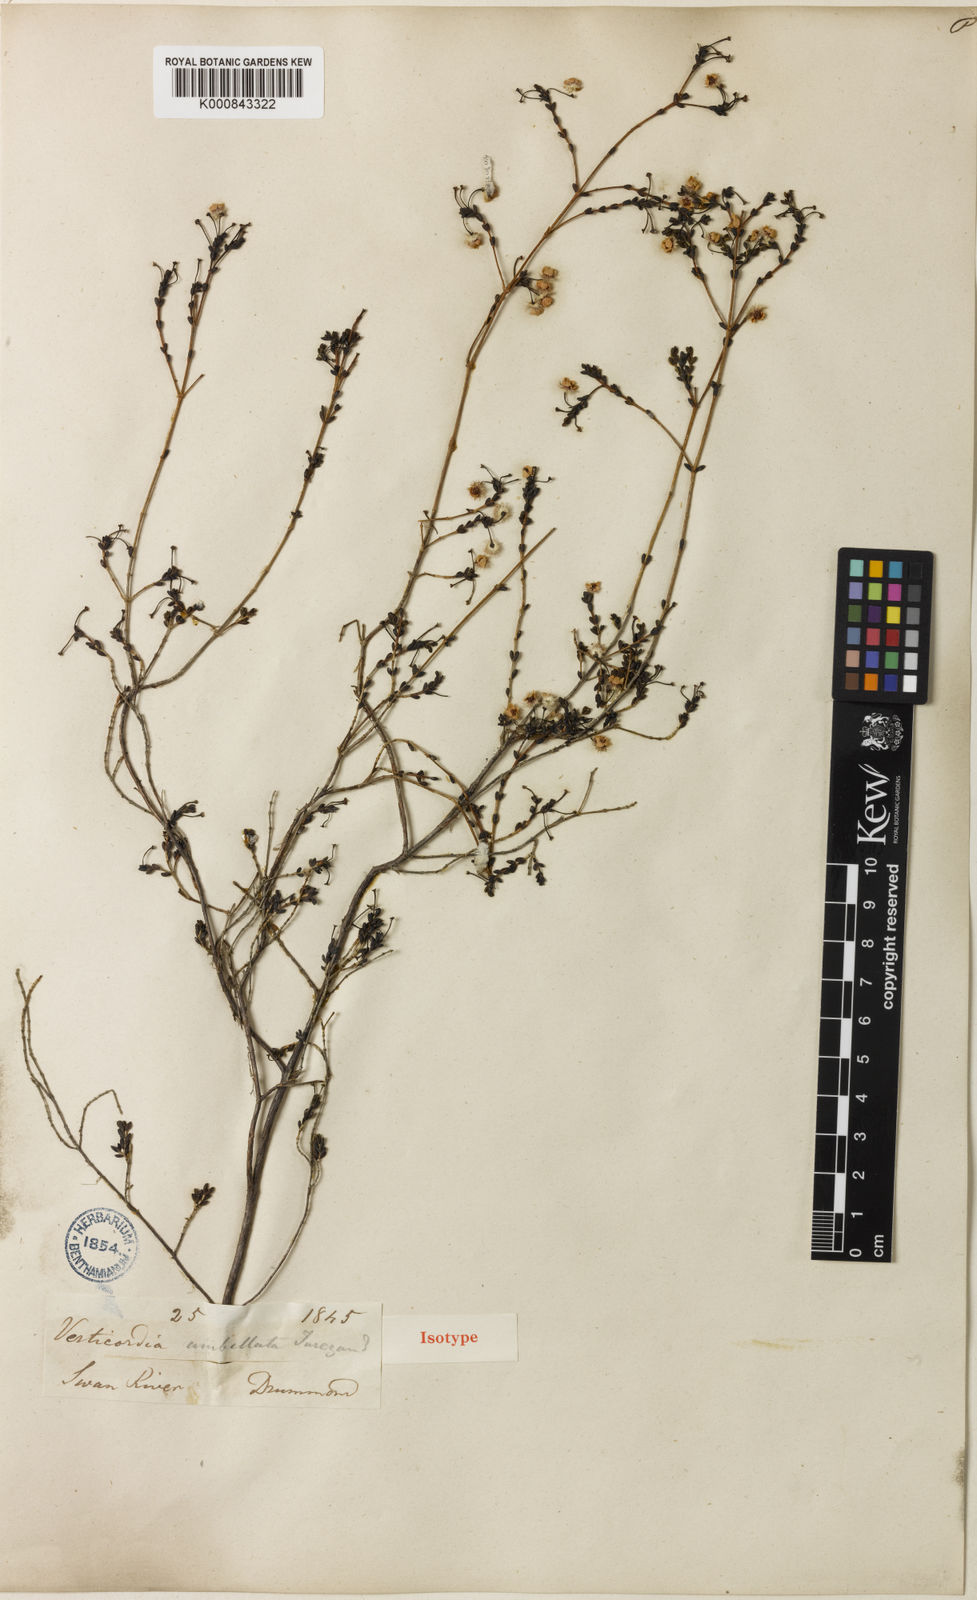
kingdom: Plantae
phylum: Tracheophyta
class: Magnoliopsida
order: Myrtales
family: Myrtaceae
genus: Verticordia
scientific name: Verticordia
